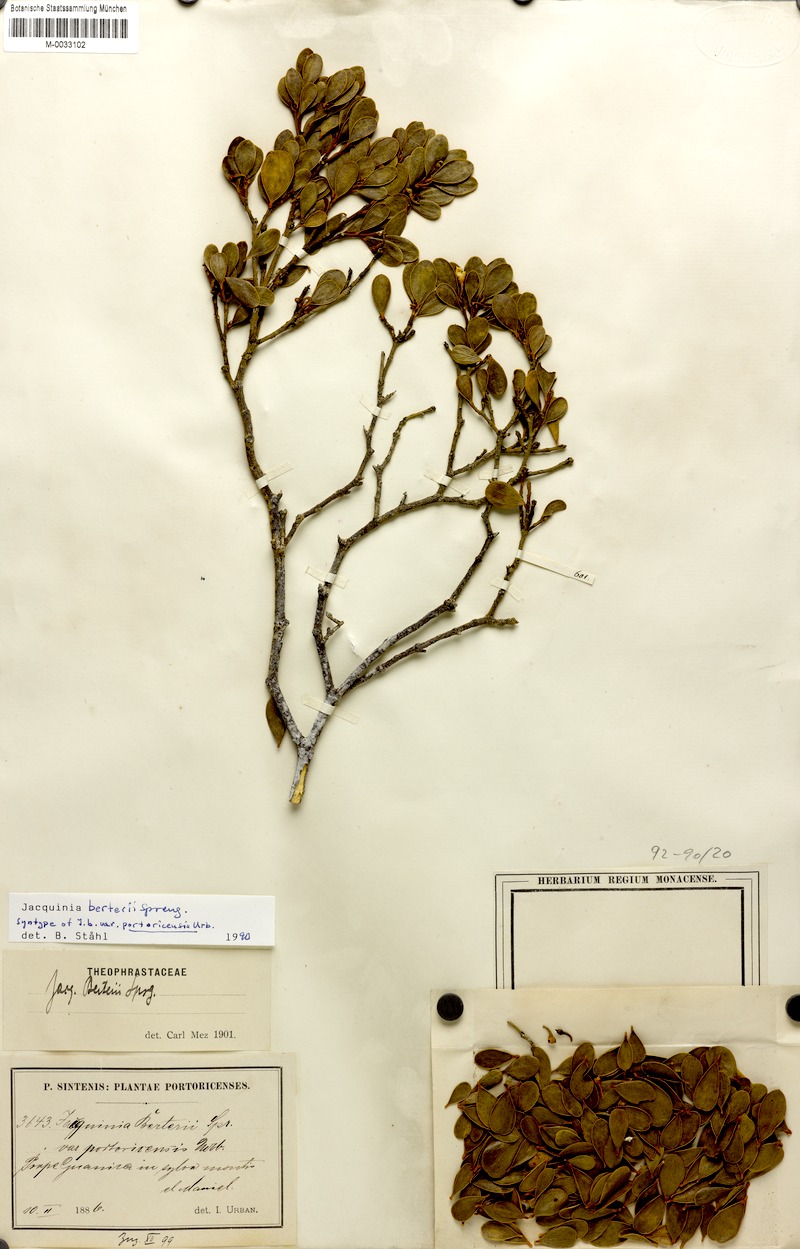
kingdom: Plantae
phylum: Tracheophyta
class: Magnoliopsida
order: Ericales
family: Primulaceae
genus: Jacquinia
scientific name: Jacquinia berteroi
